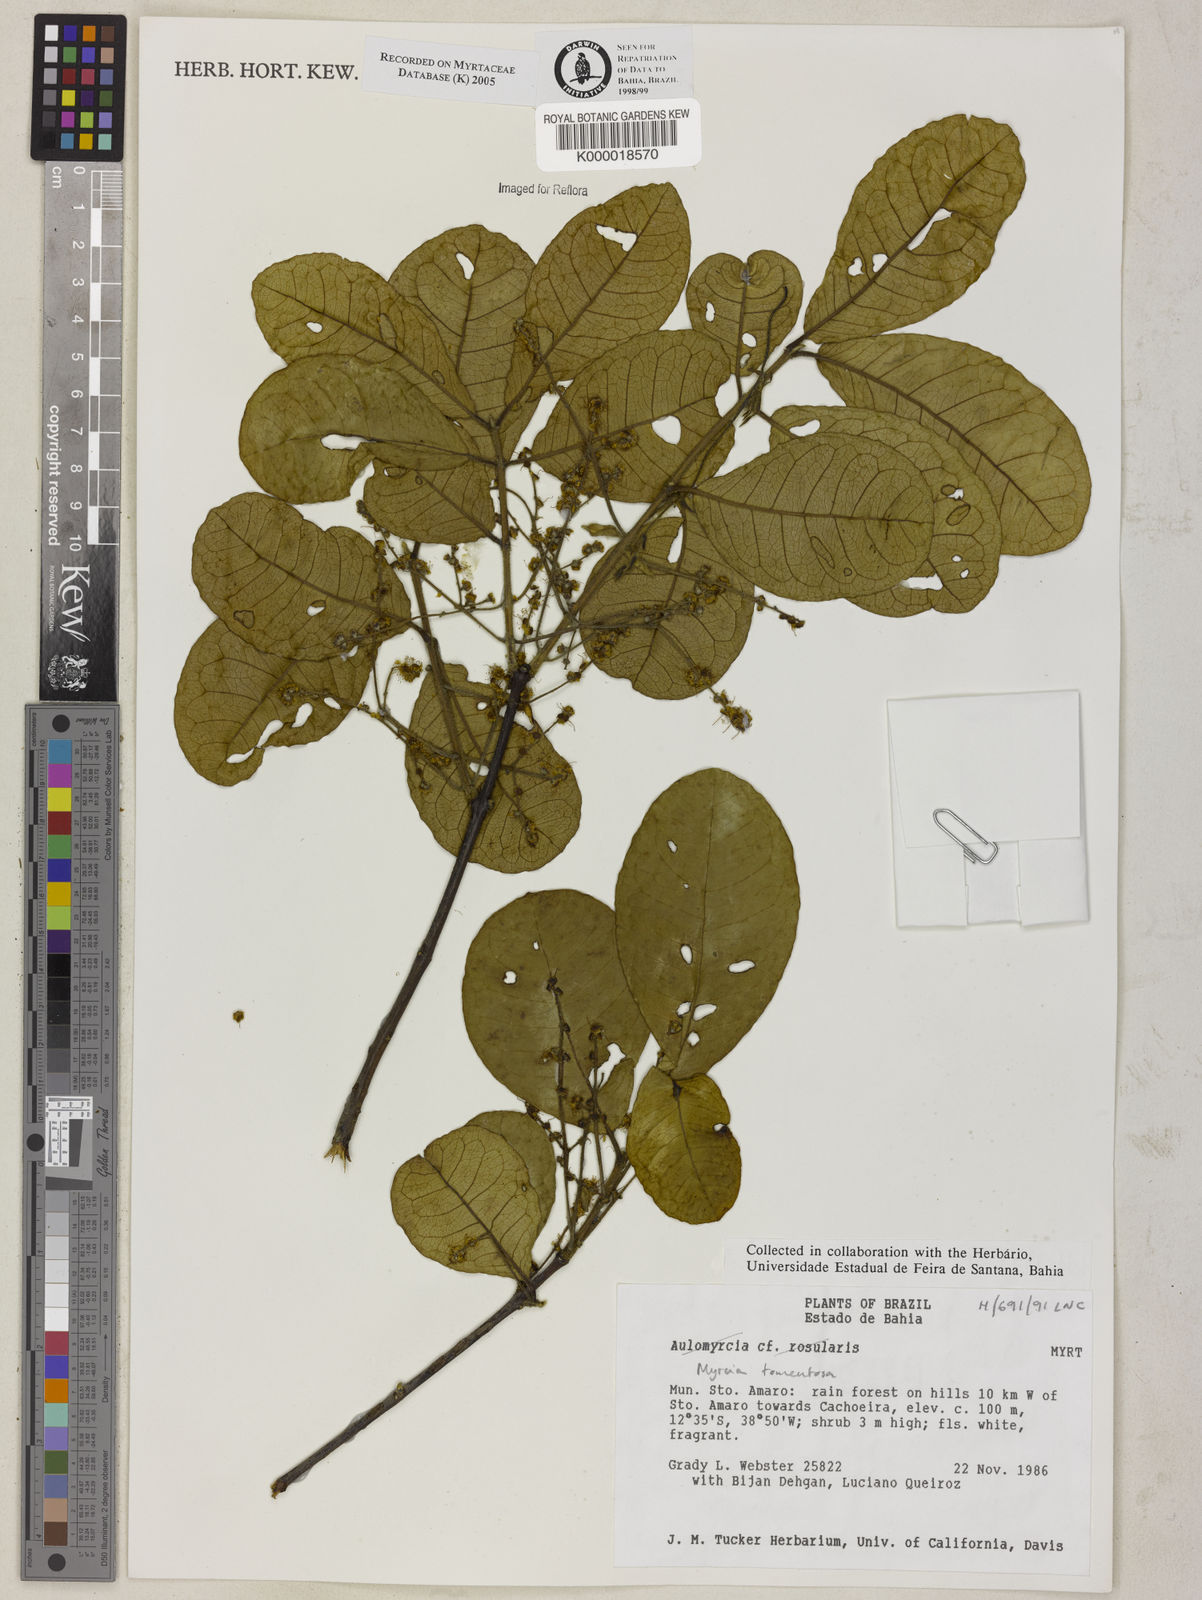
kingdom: Plantae
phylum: Tracheophyta
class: Magnoliopsida
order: Myrtales
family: Myrtaceae
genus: Myrcia
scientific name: Myrcia tomentosa
